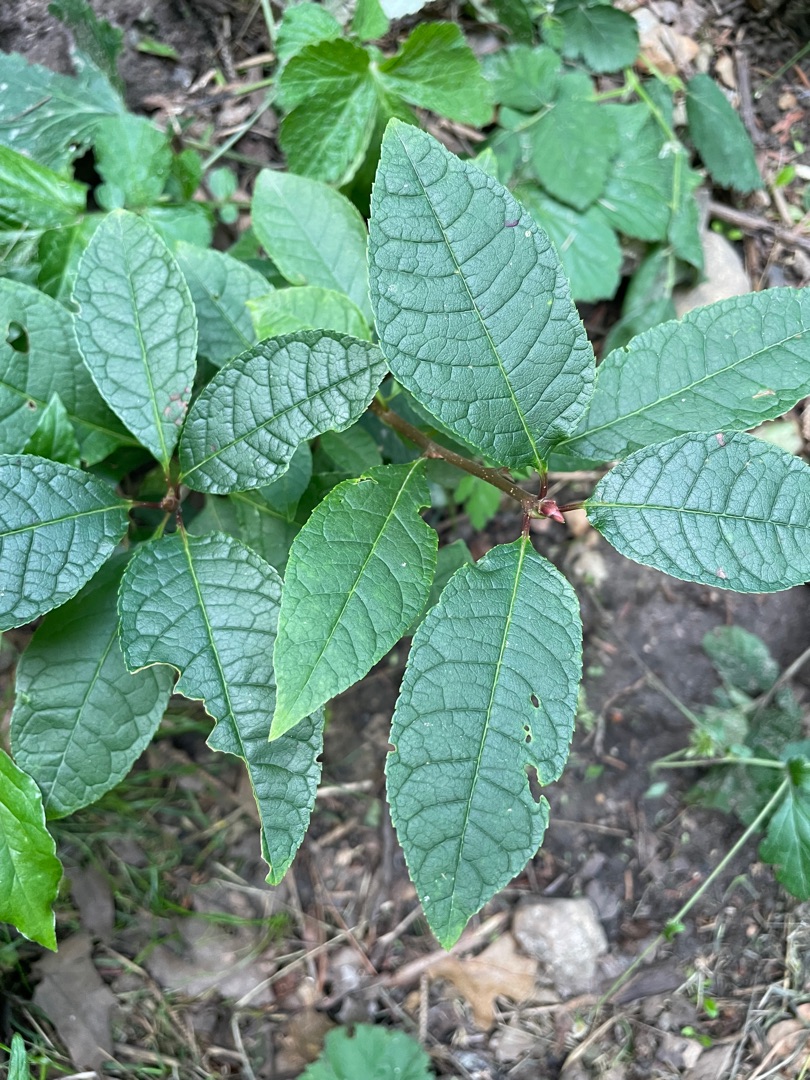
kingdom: Plantae
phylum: Tracheophyta
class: Magnoliopsida
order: Rosales
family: Rosaceae
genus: Prunus
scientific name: Prunus padus
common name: Almindelig hæg
